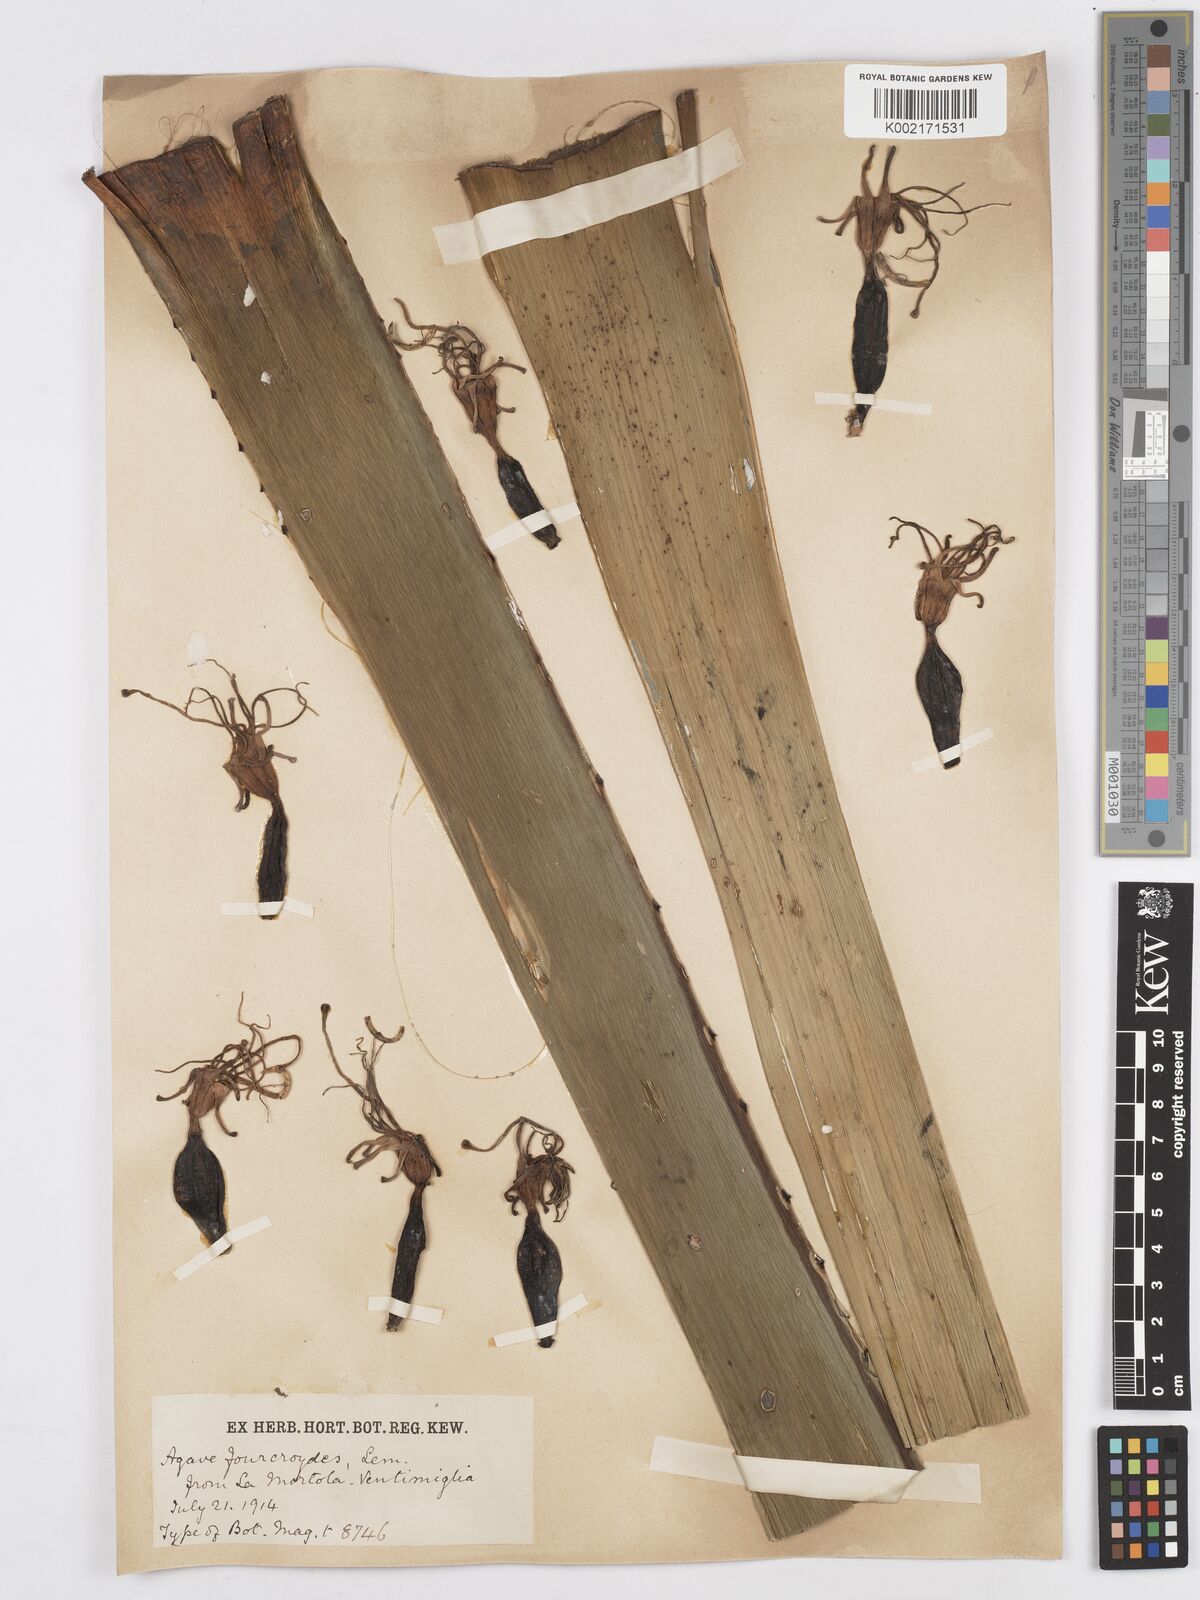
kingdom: Plantae
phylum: Tracheophyta
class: Liliopsida
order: Asparagales
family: Asparagaceae
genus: Agave
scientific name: Agave fourcroydes
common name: Henequen
